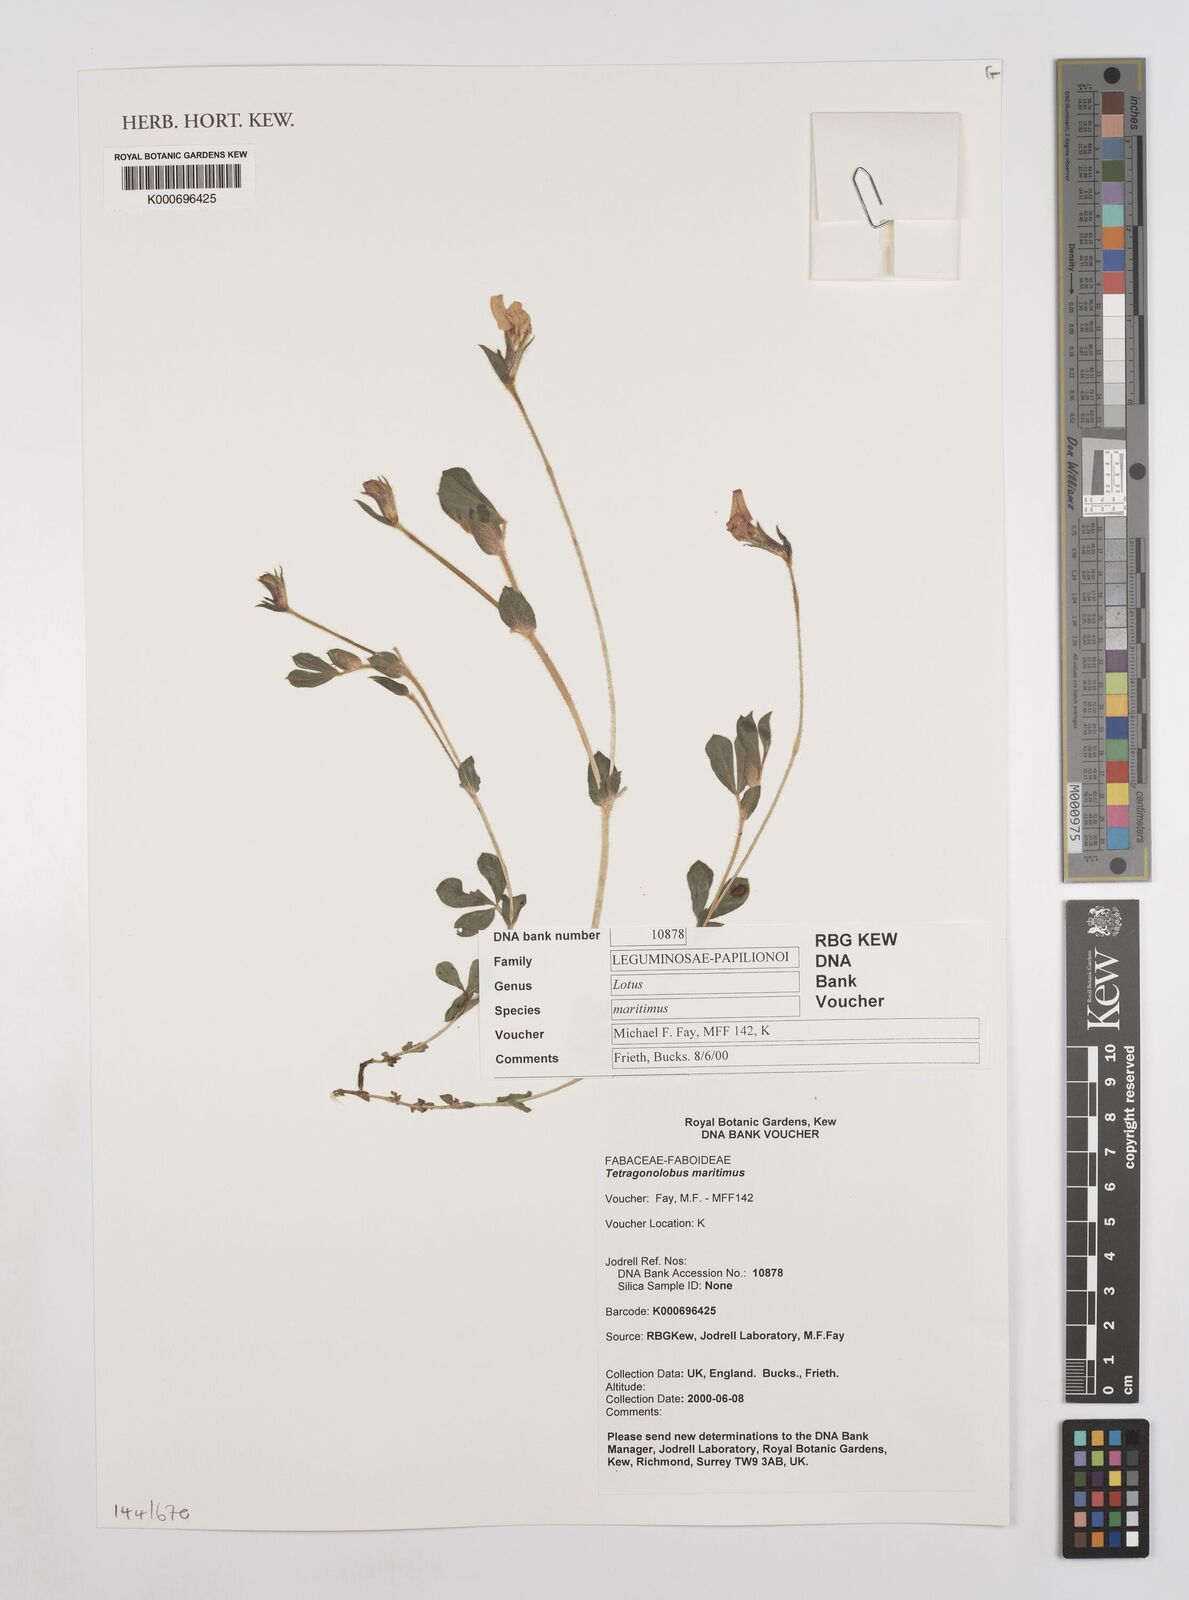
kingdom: Plantae
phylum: Tracheophyta
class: Magnoliopsida
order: Fabales
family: Fabaceae
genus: Lotus
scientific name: Lotus maritimus
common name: Dragon's-teeth
